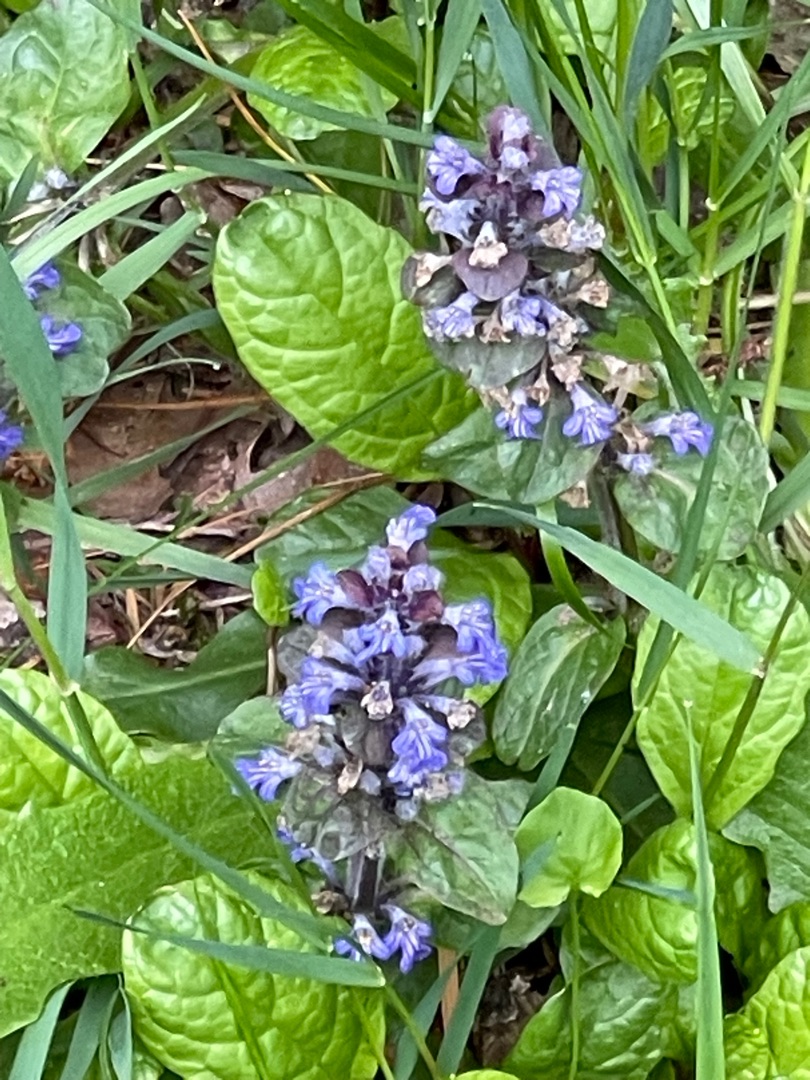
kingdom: Plantae
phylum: Tracheophyta
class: Magnoliopsida
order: Lamiales
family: Lamiaceae
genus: Ajuga
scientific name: Ajuga reptans
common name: Krybende læbeløs
